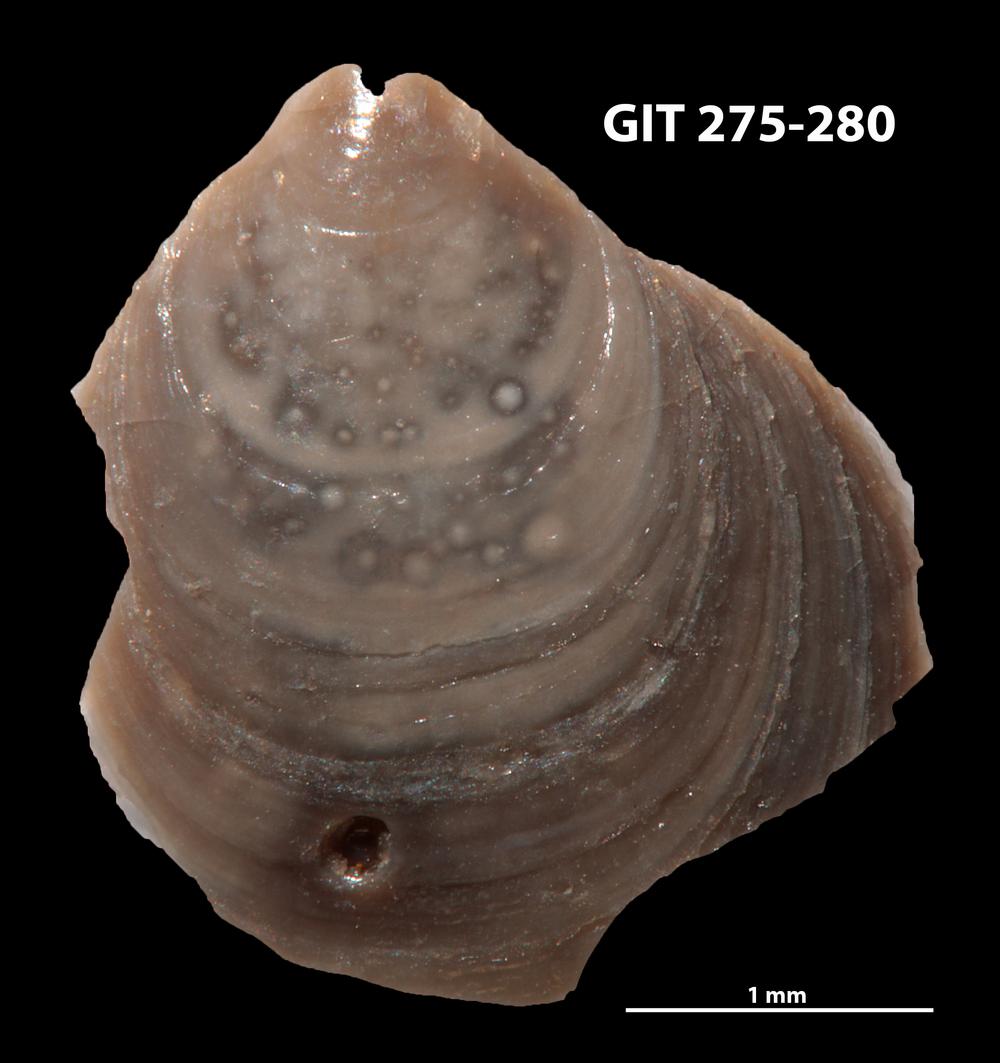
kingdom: Animalia
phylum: Brachiopoda
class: Lingulata
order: Lingulida
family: Obolidae
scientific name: Obolidae
